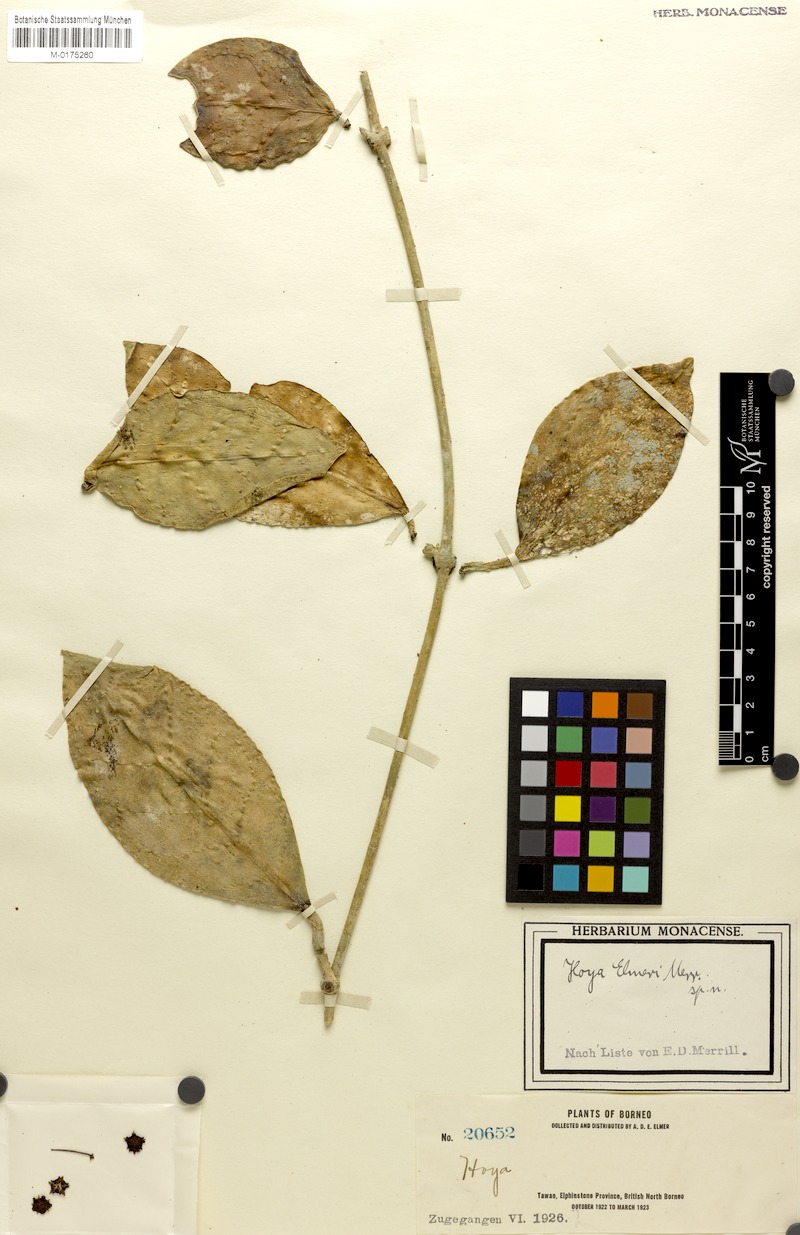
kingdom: Plantae
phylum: Tracheophyta
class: Magnoliopsida
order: Gentianales
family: Apocynaceae
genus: Hoya
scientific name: Hoya elmeri
